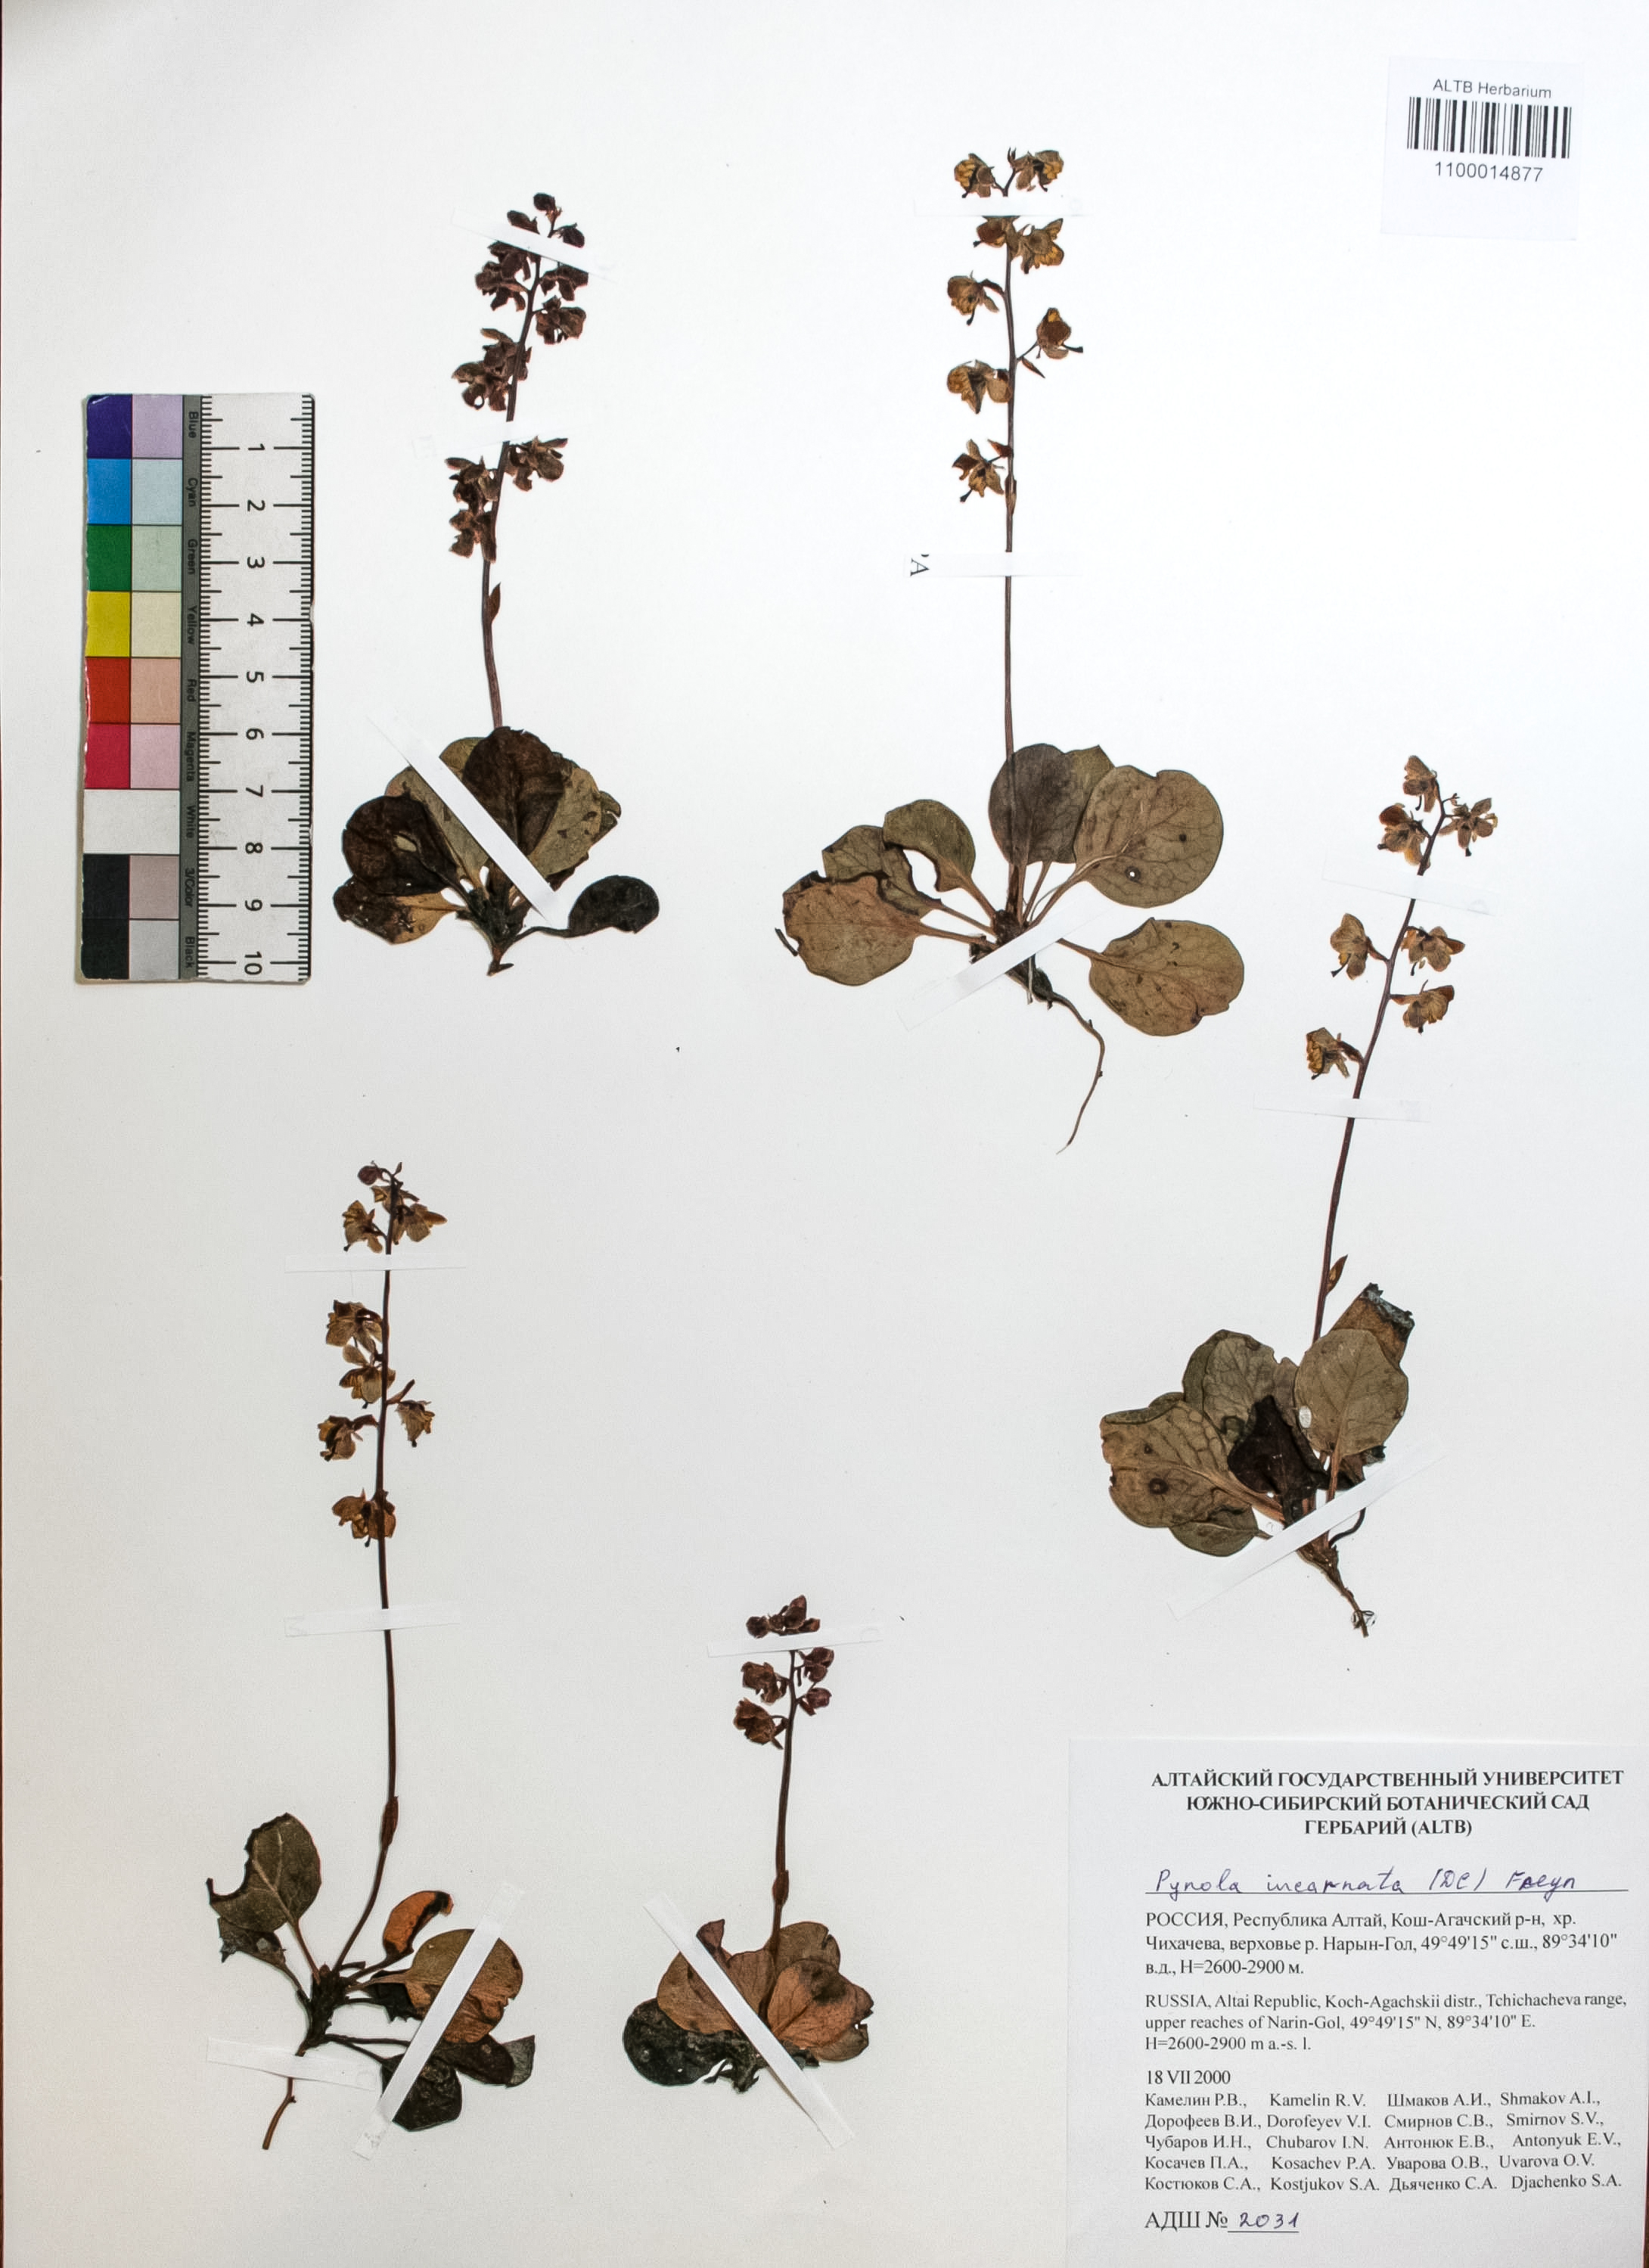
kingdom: Plantae
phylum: Tracheophyta
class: Magnoliopsida
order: Ericales
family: Ericaceae
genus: Pyrola
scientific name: Pyrola asarifolia
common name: Bog wintergreen
